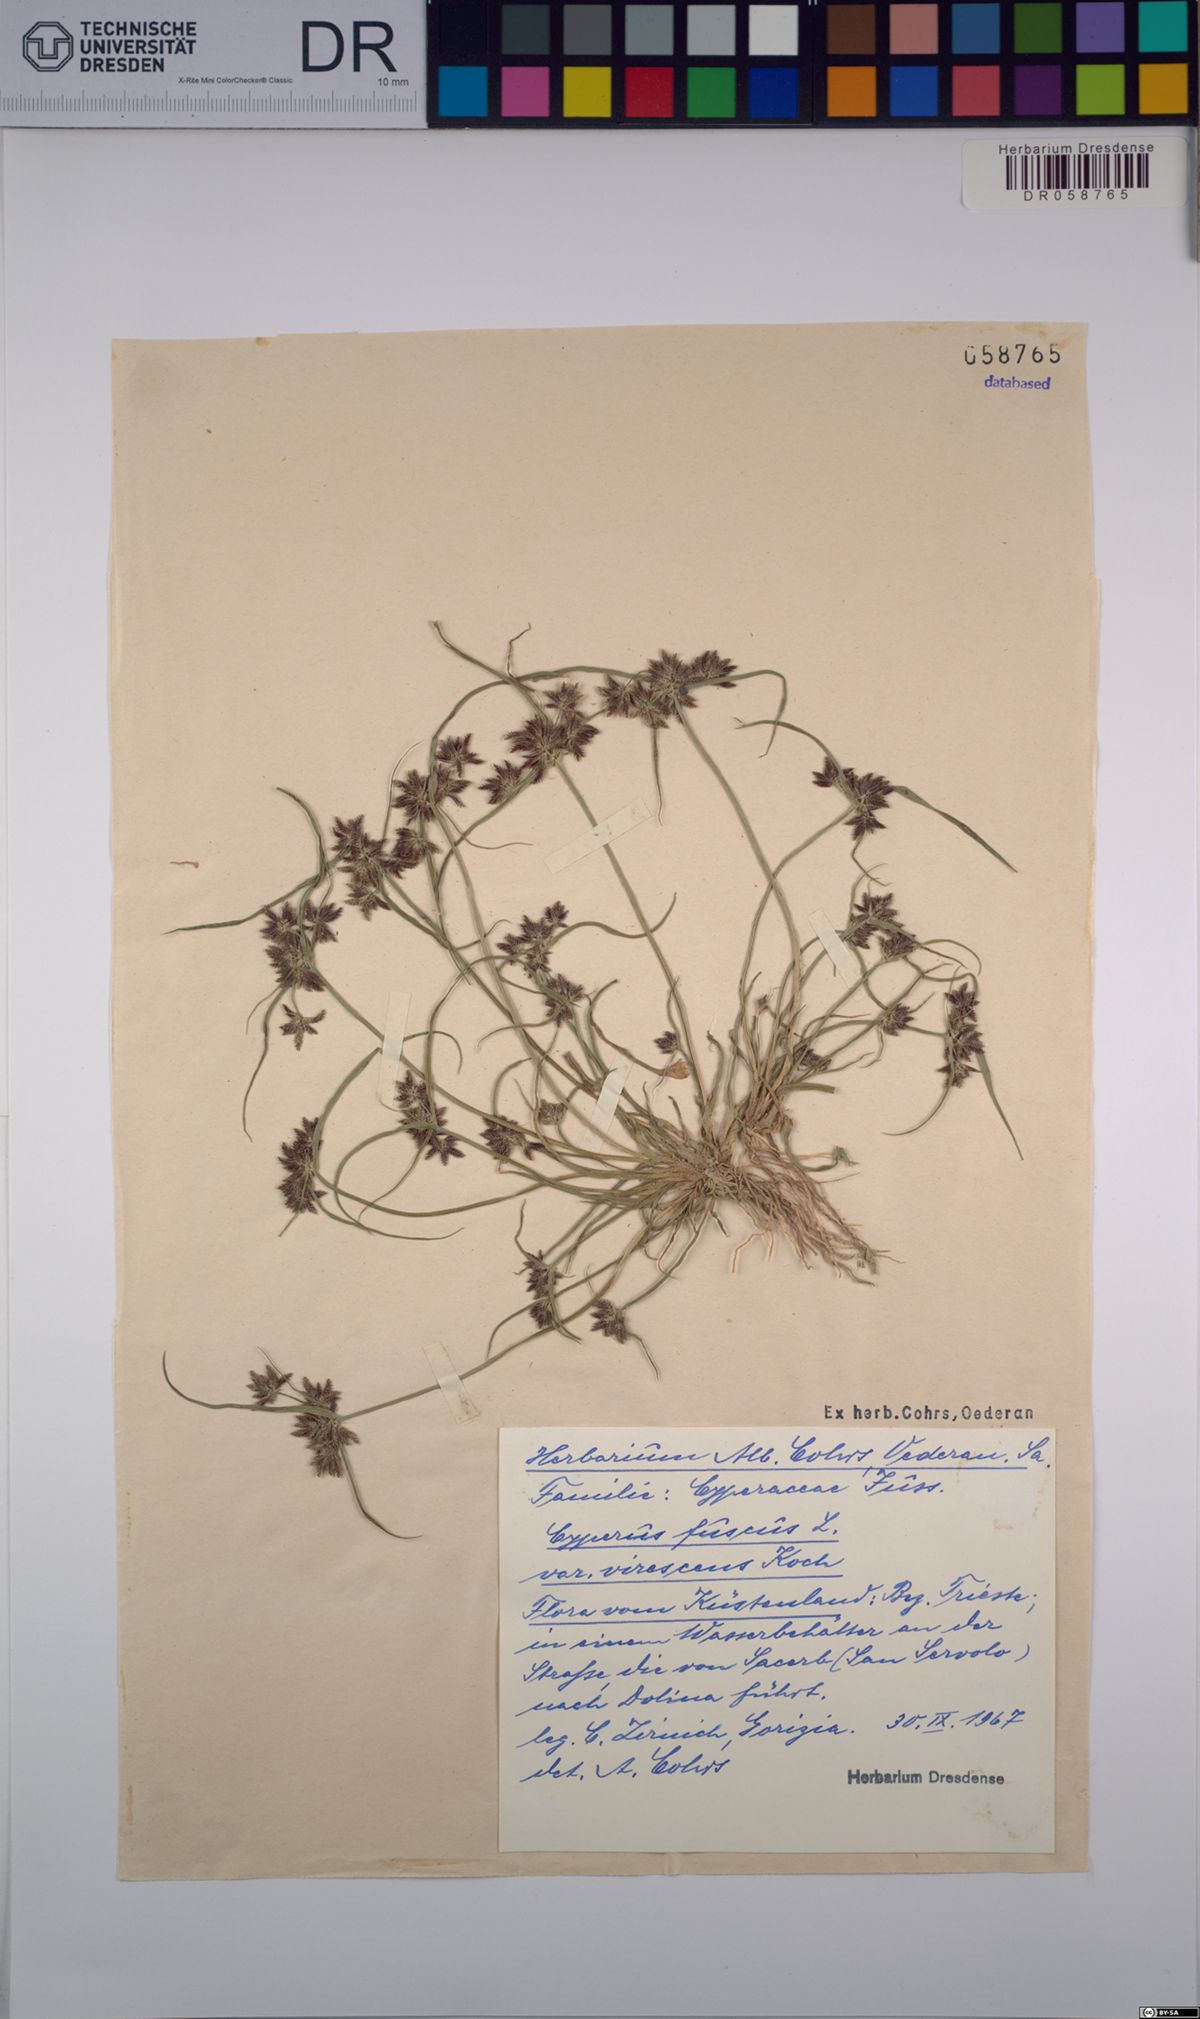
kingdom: Plantae
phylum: Tracheophyta
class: Liliopsida
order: Poales
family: Cyperaceae
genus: Cyperus
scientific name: Cyperus fuscus
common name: Brown galingale
